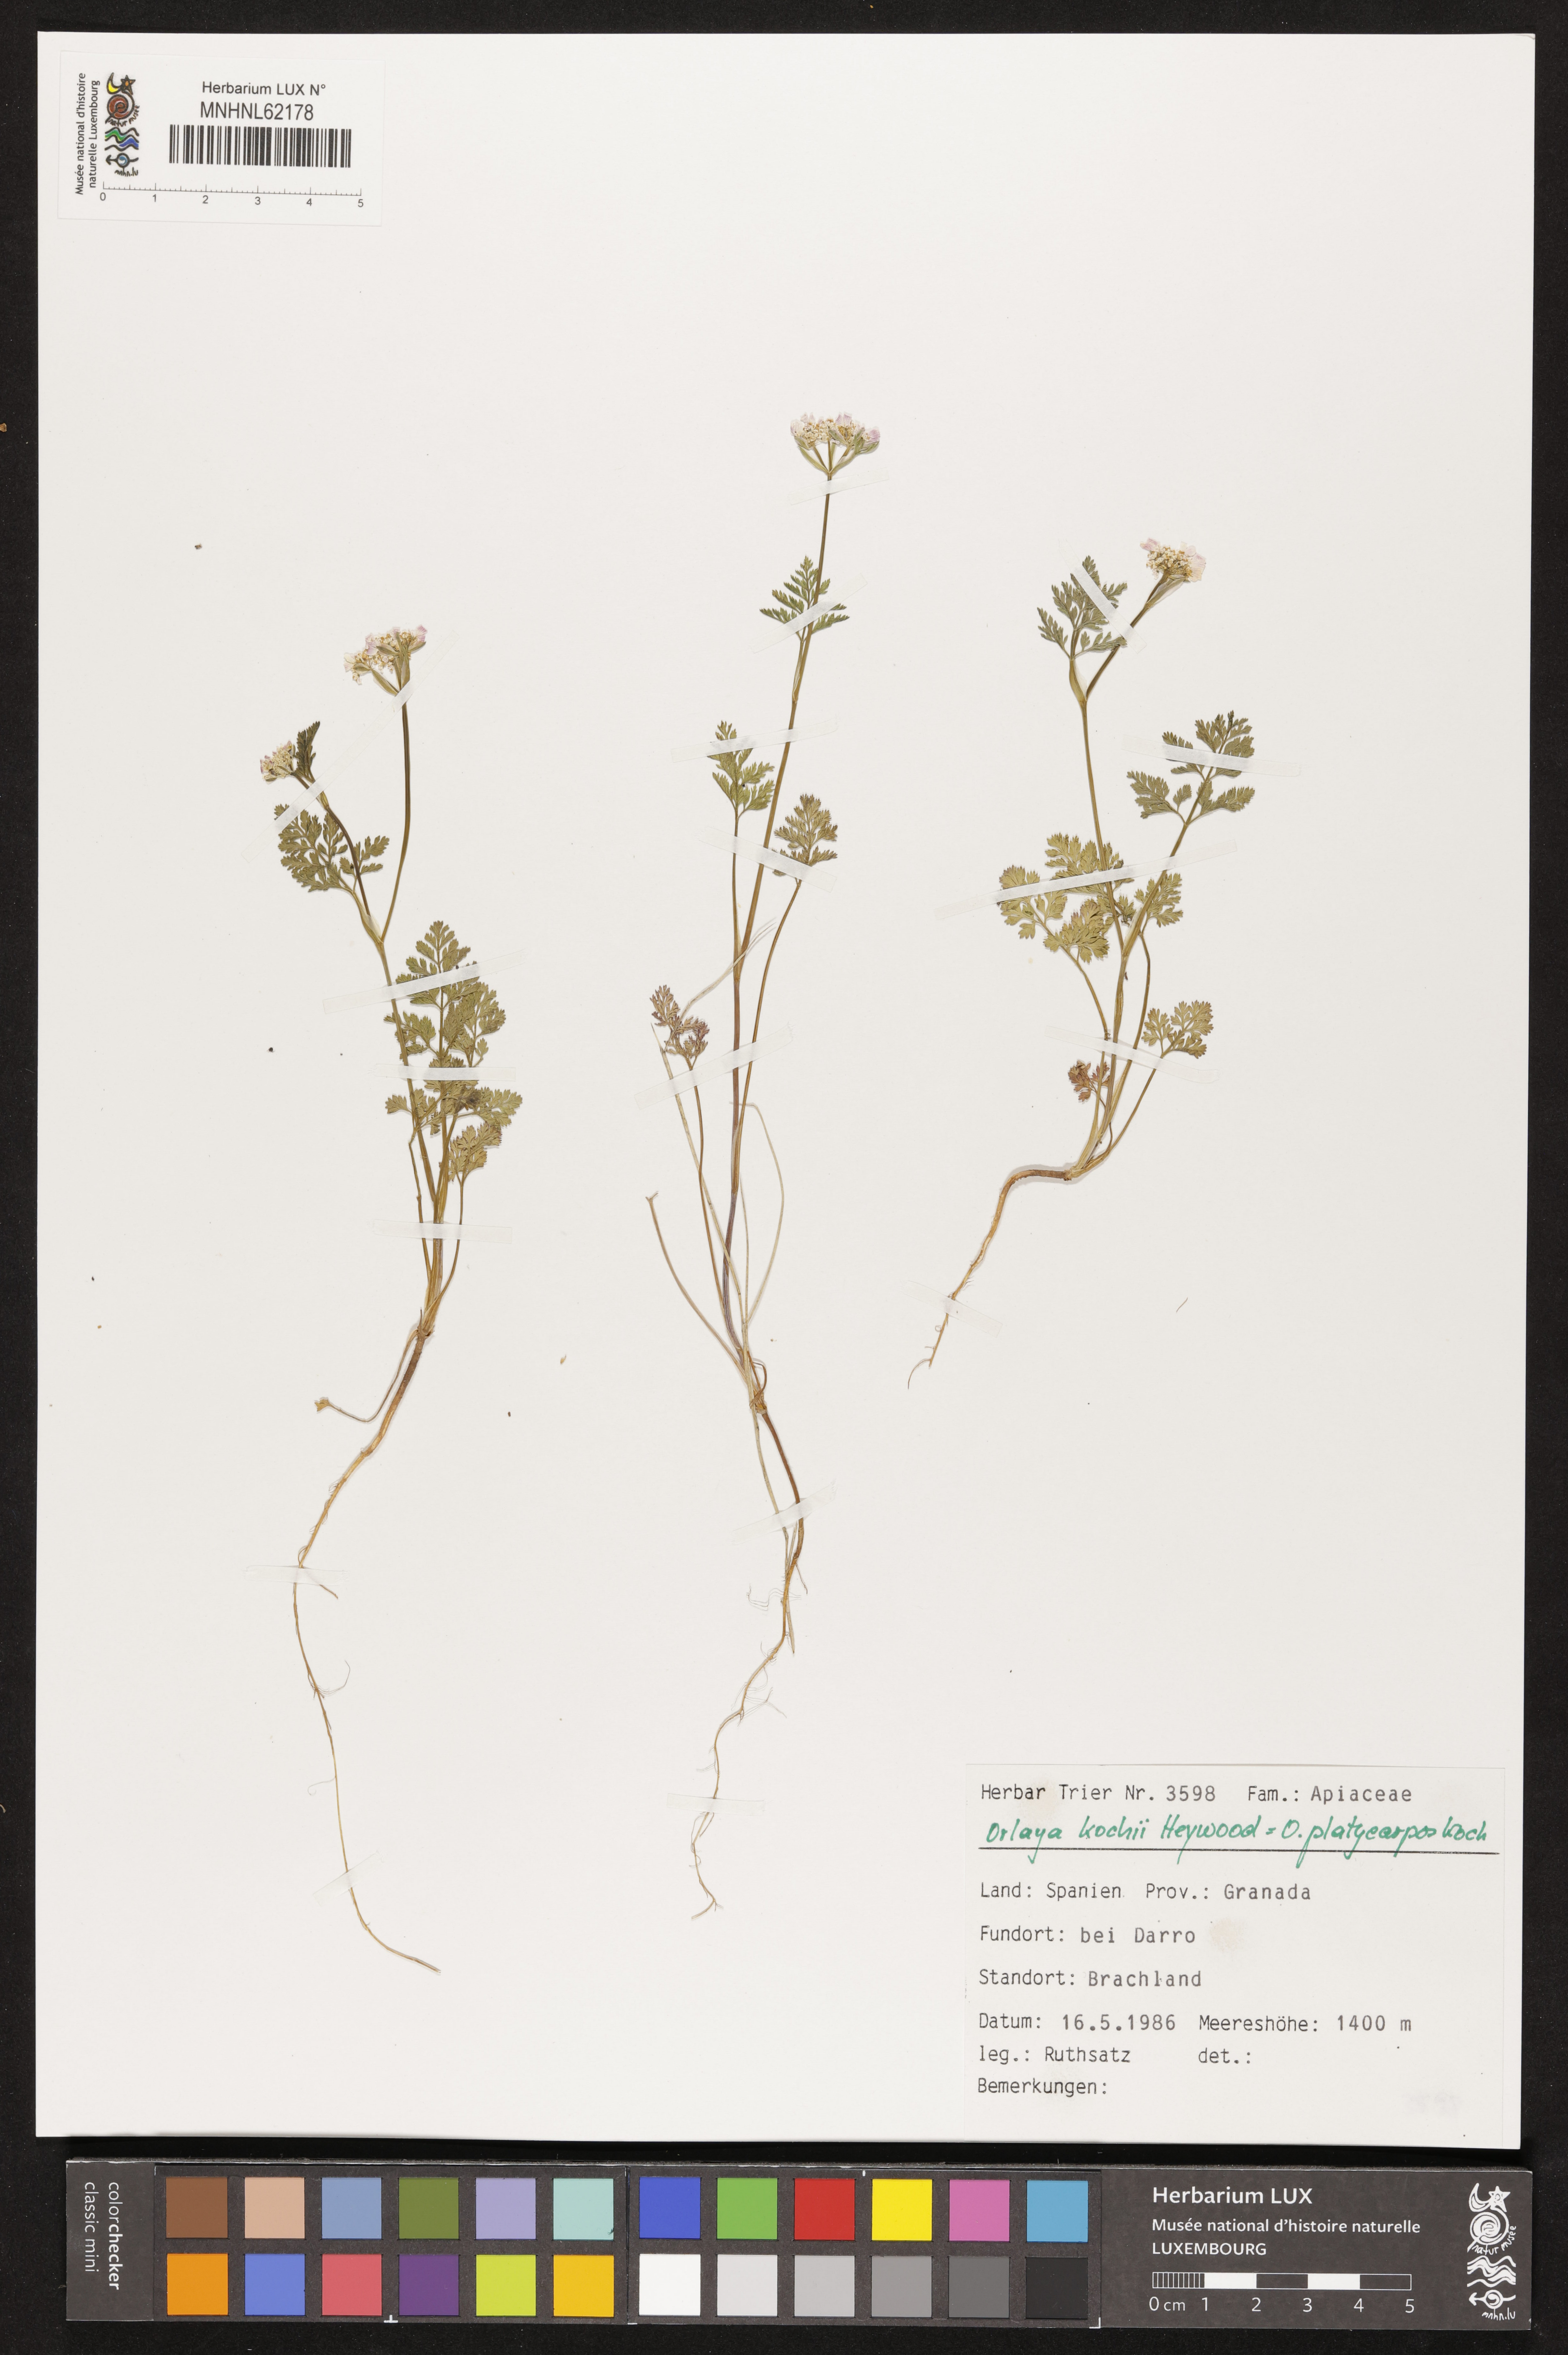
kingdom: Plantae
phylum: Tracheophyta
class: Magnoliopsida
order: Apiales
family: Apiaceae
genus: Orlaya
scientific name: Orlaya daucoides
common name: Flat-fruit orlaya
